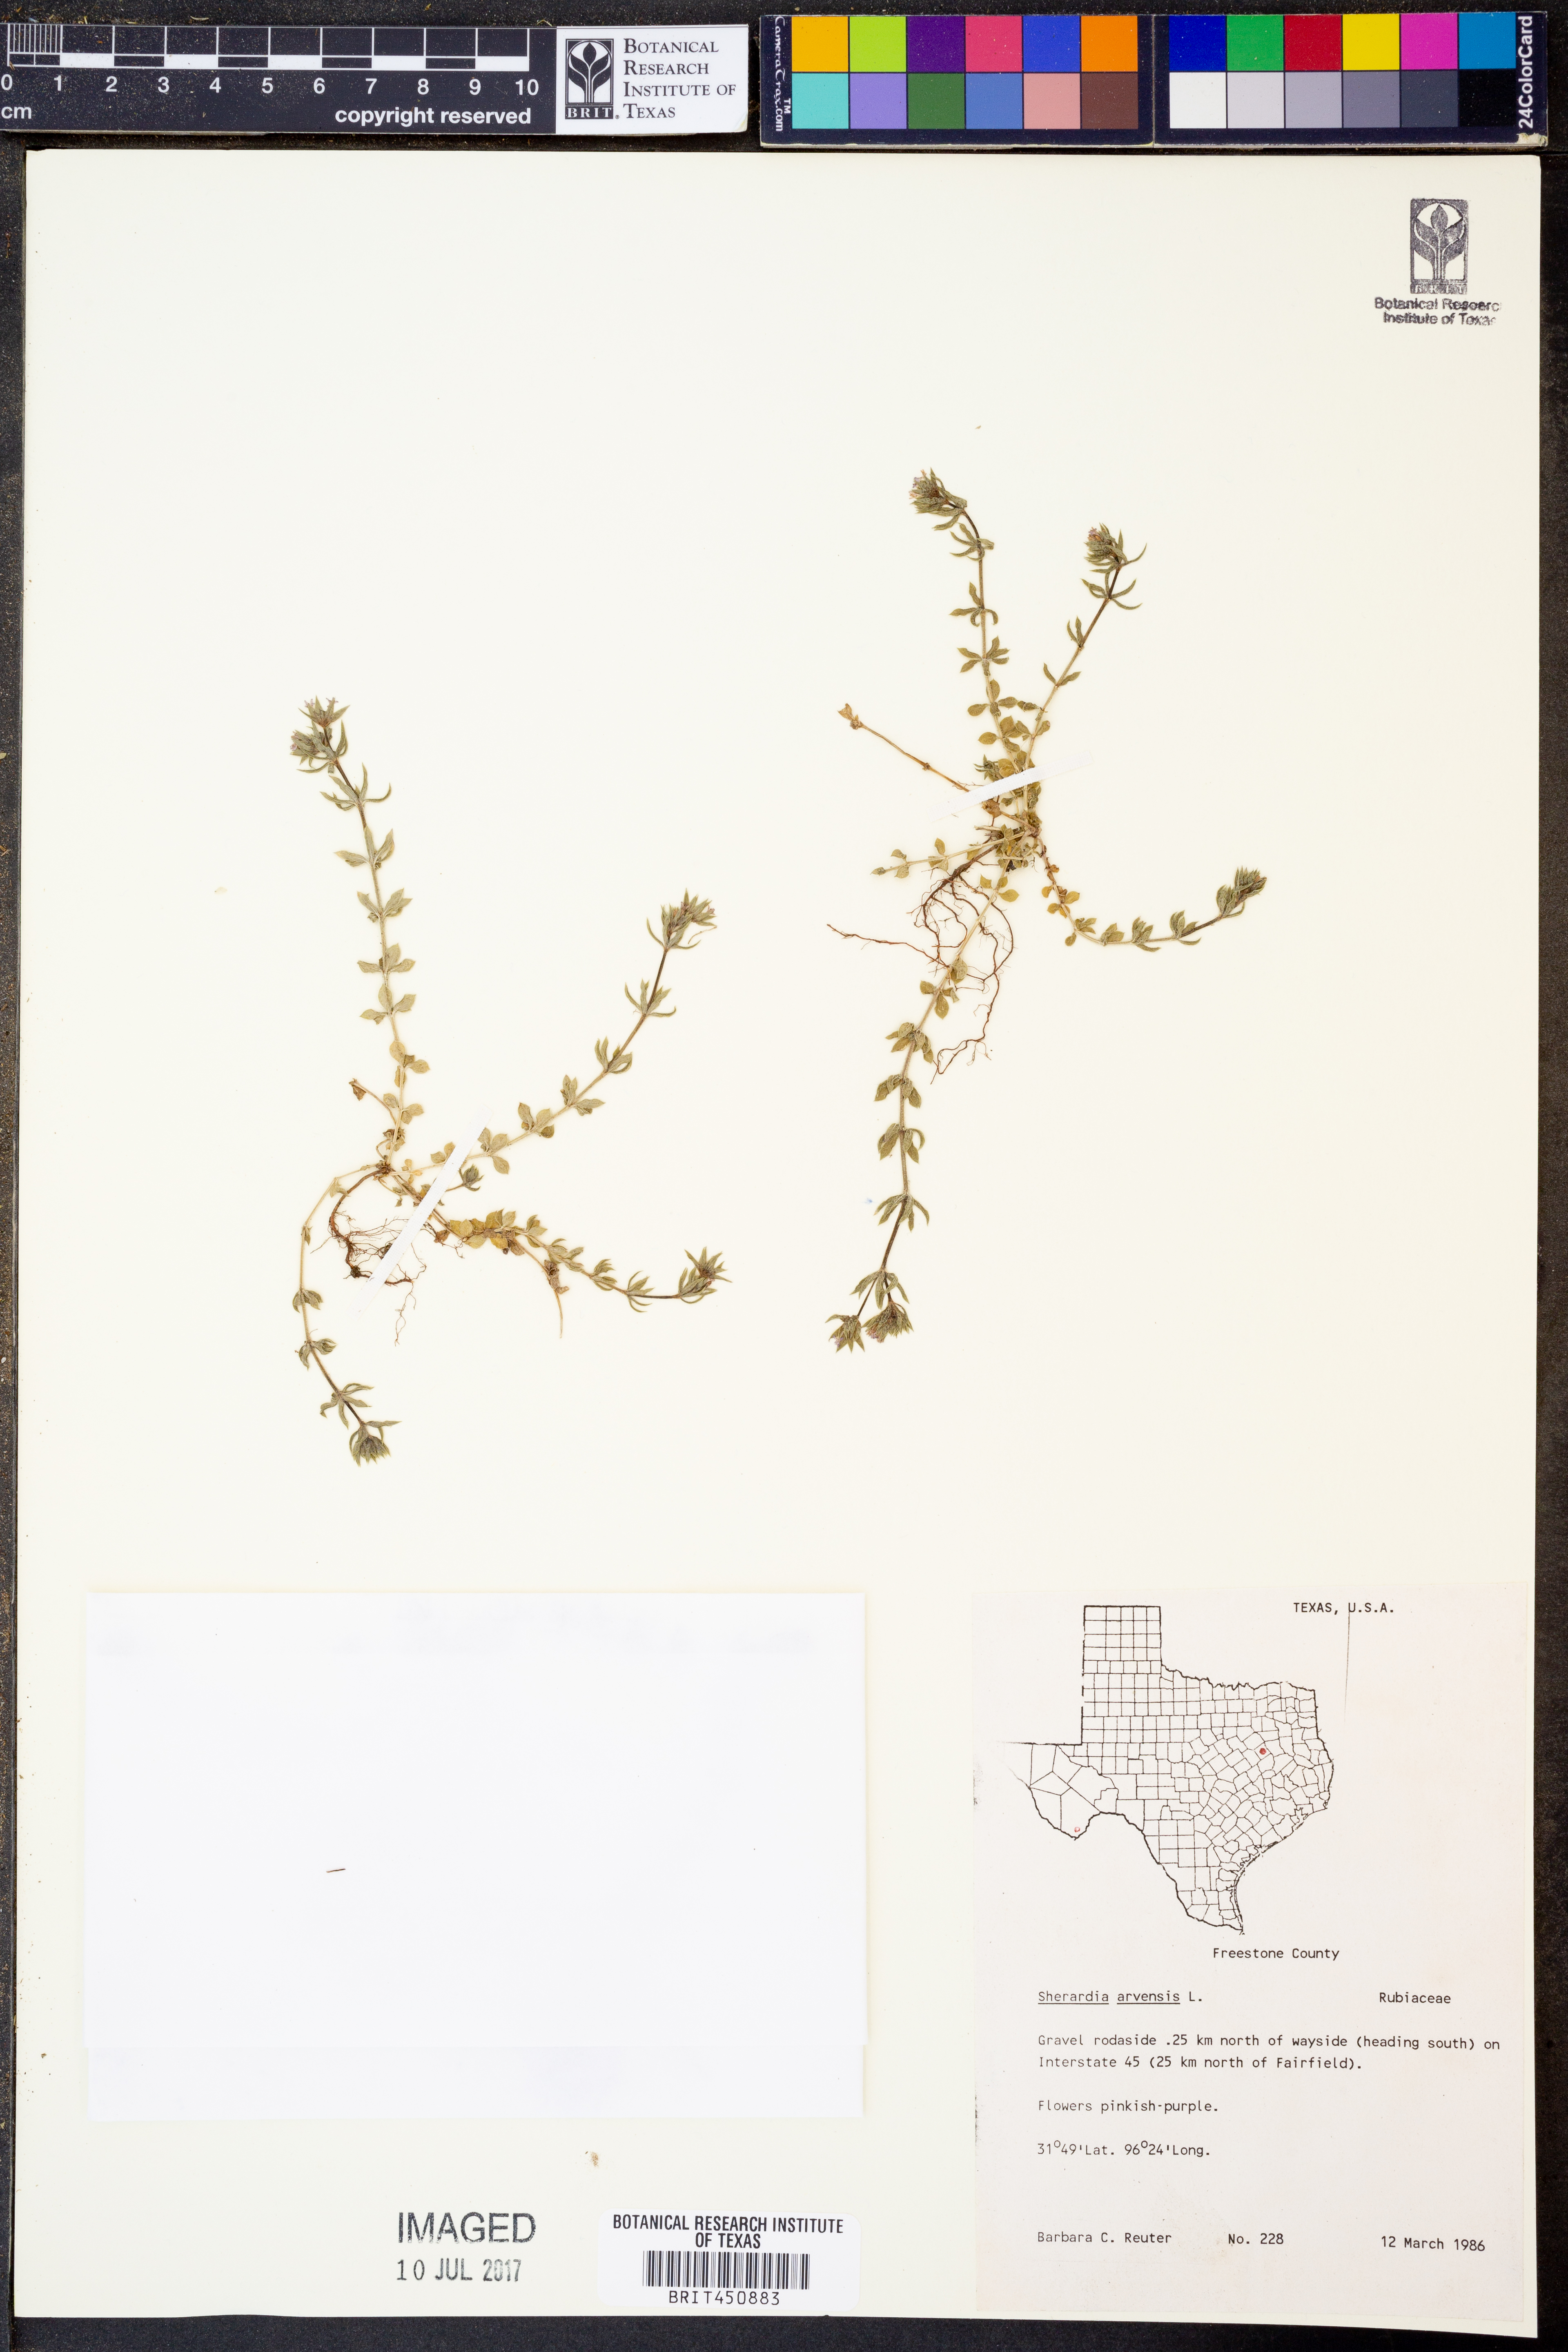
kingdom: Plantae
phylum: Tracheophyta
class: Magnoliopsida
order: Gentianales
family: Rubiaceae
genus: Sherardia
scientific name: Sherardia arvensis
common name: Field madder
